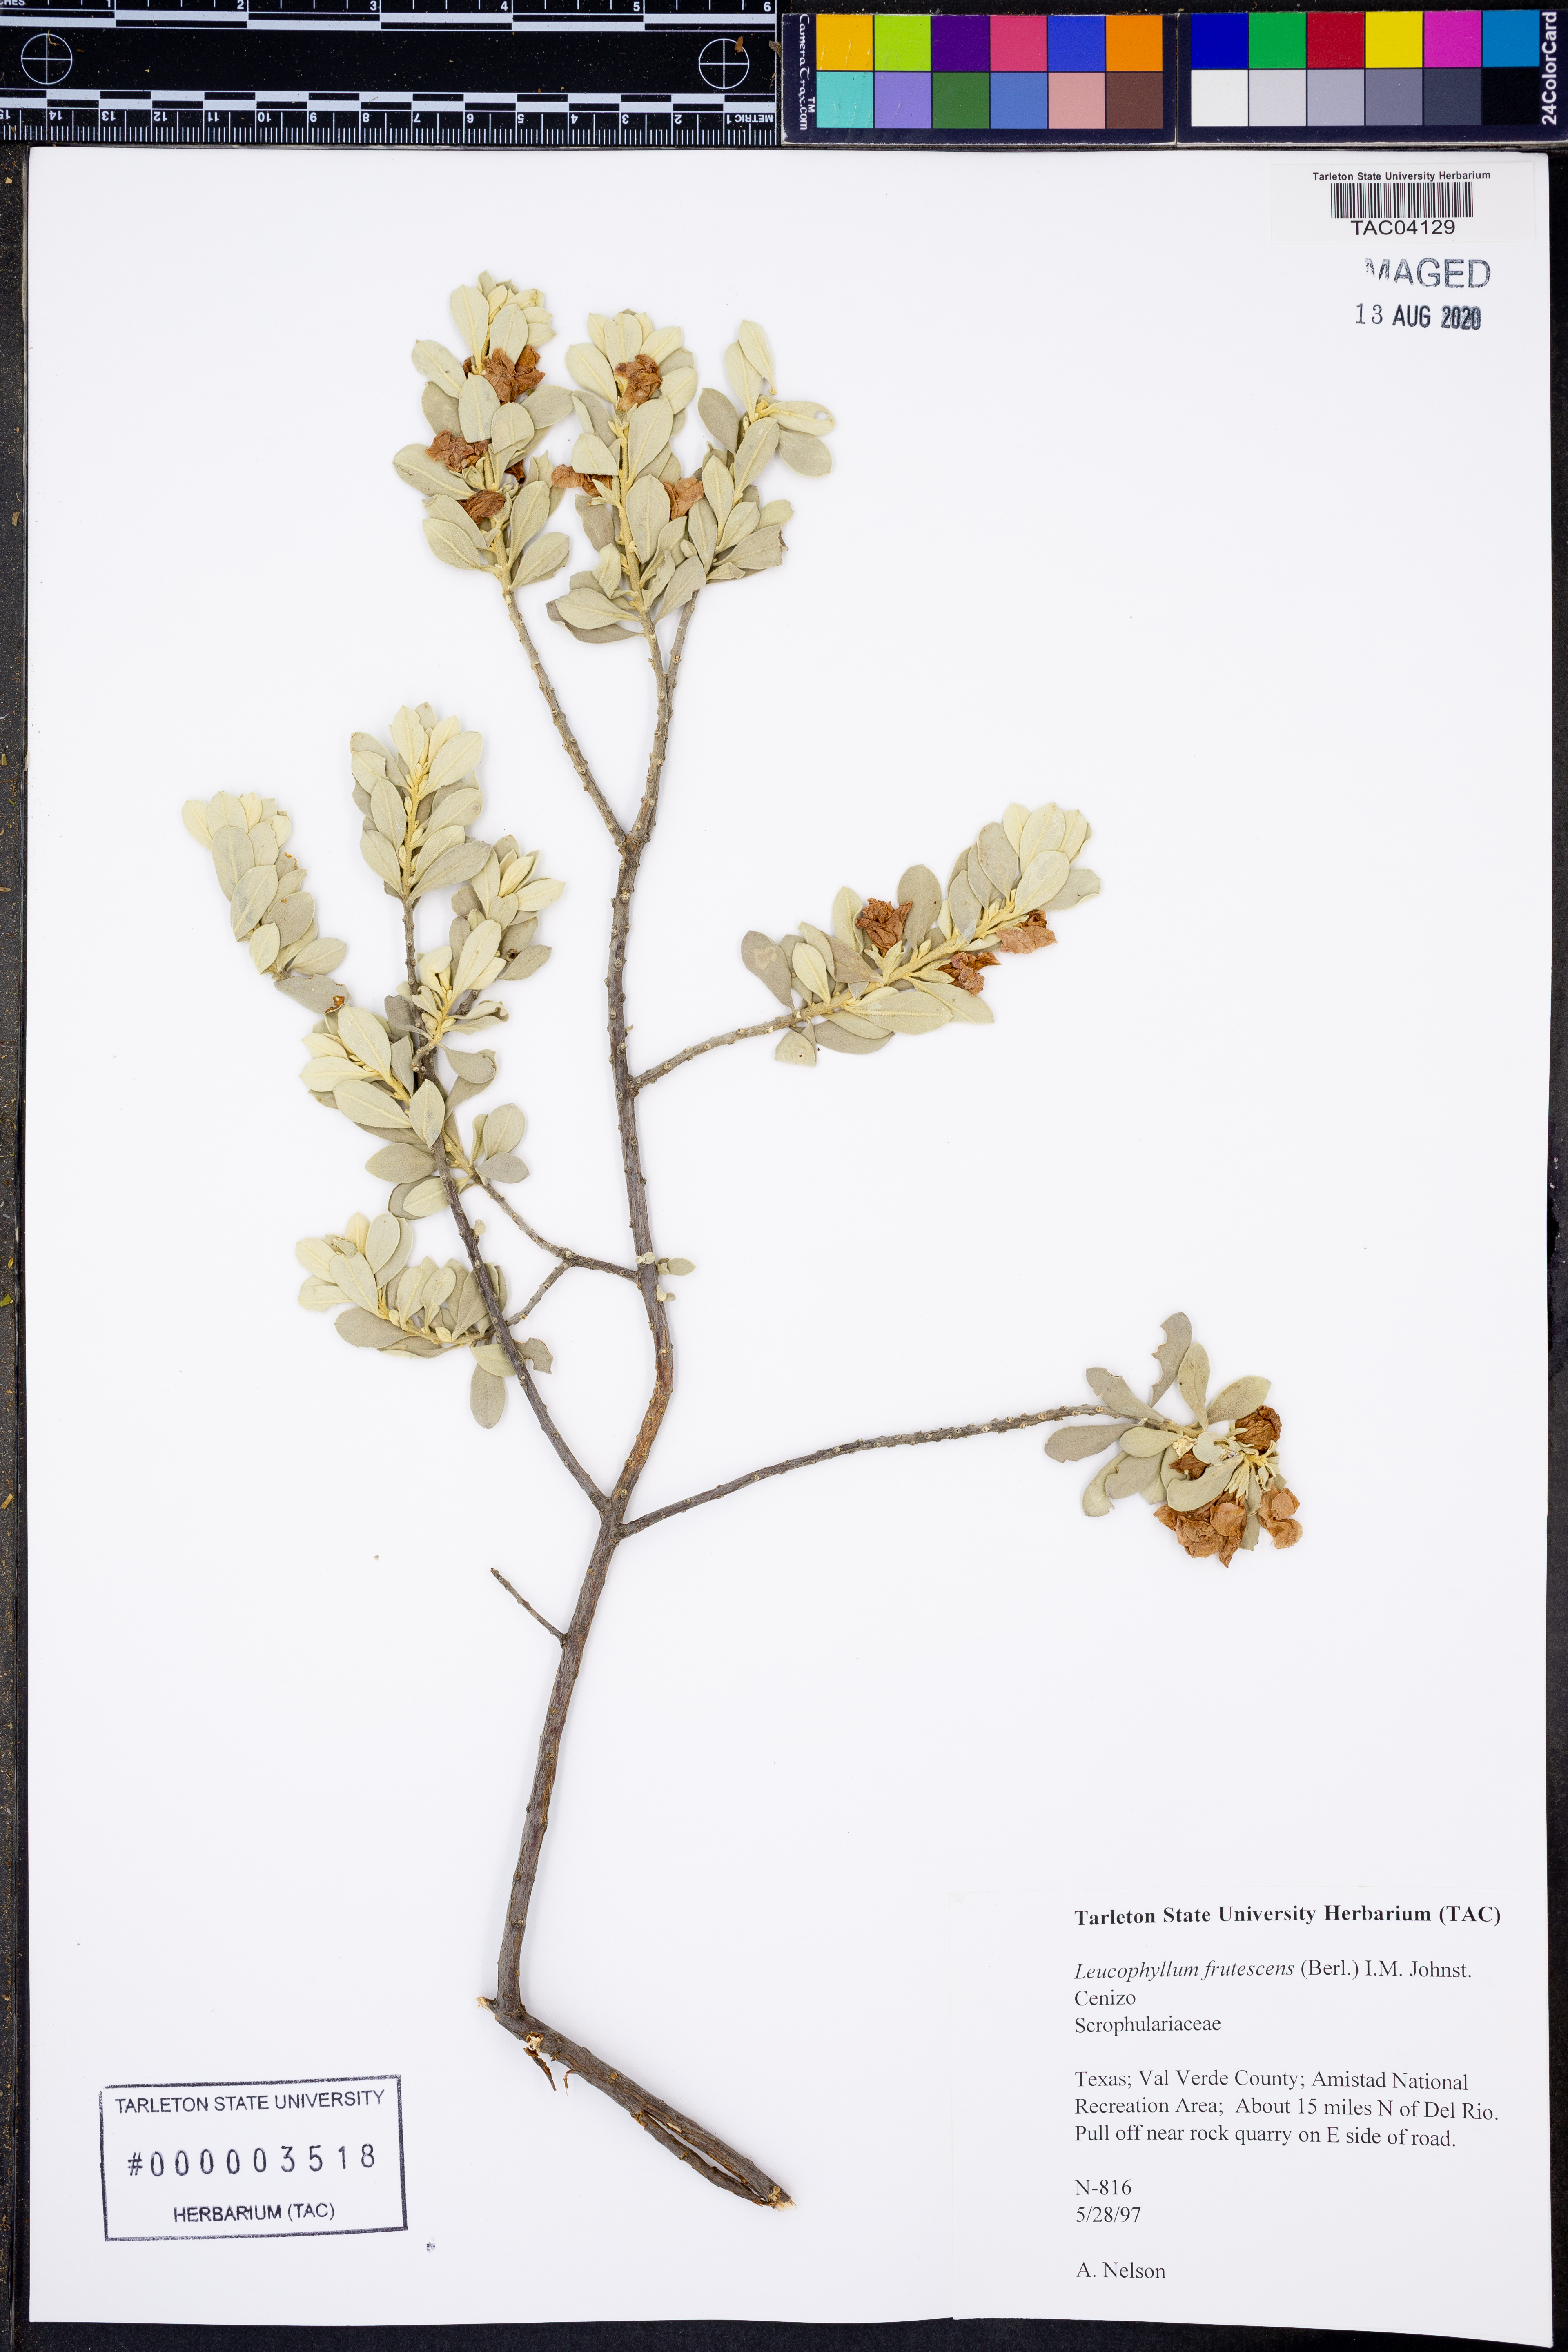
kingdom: Plantae
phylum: Tracheophyta
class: Magnoliopsida
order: Lamiales
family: Scrophulariaceae
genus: Leucophyllum
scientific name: Leucophyllum frutescens
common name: Texas silverleaf
